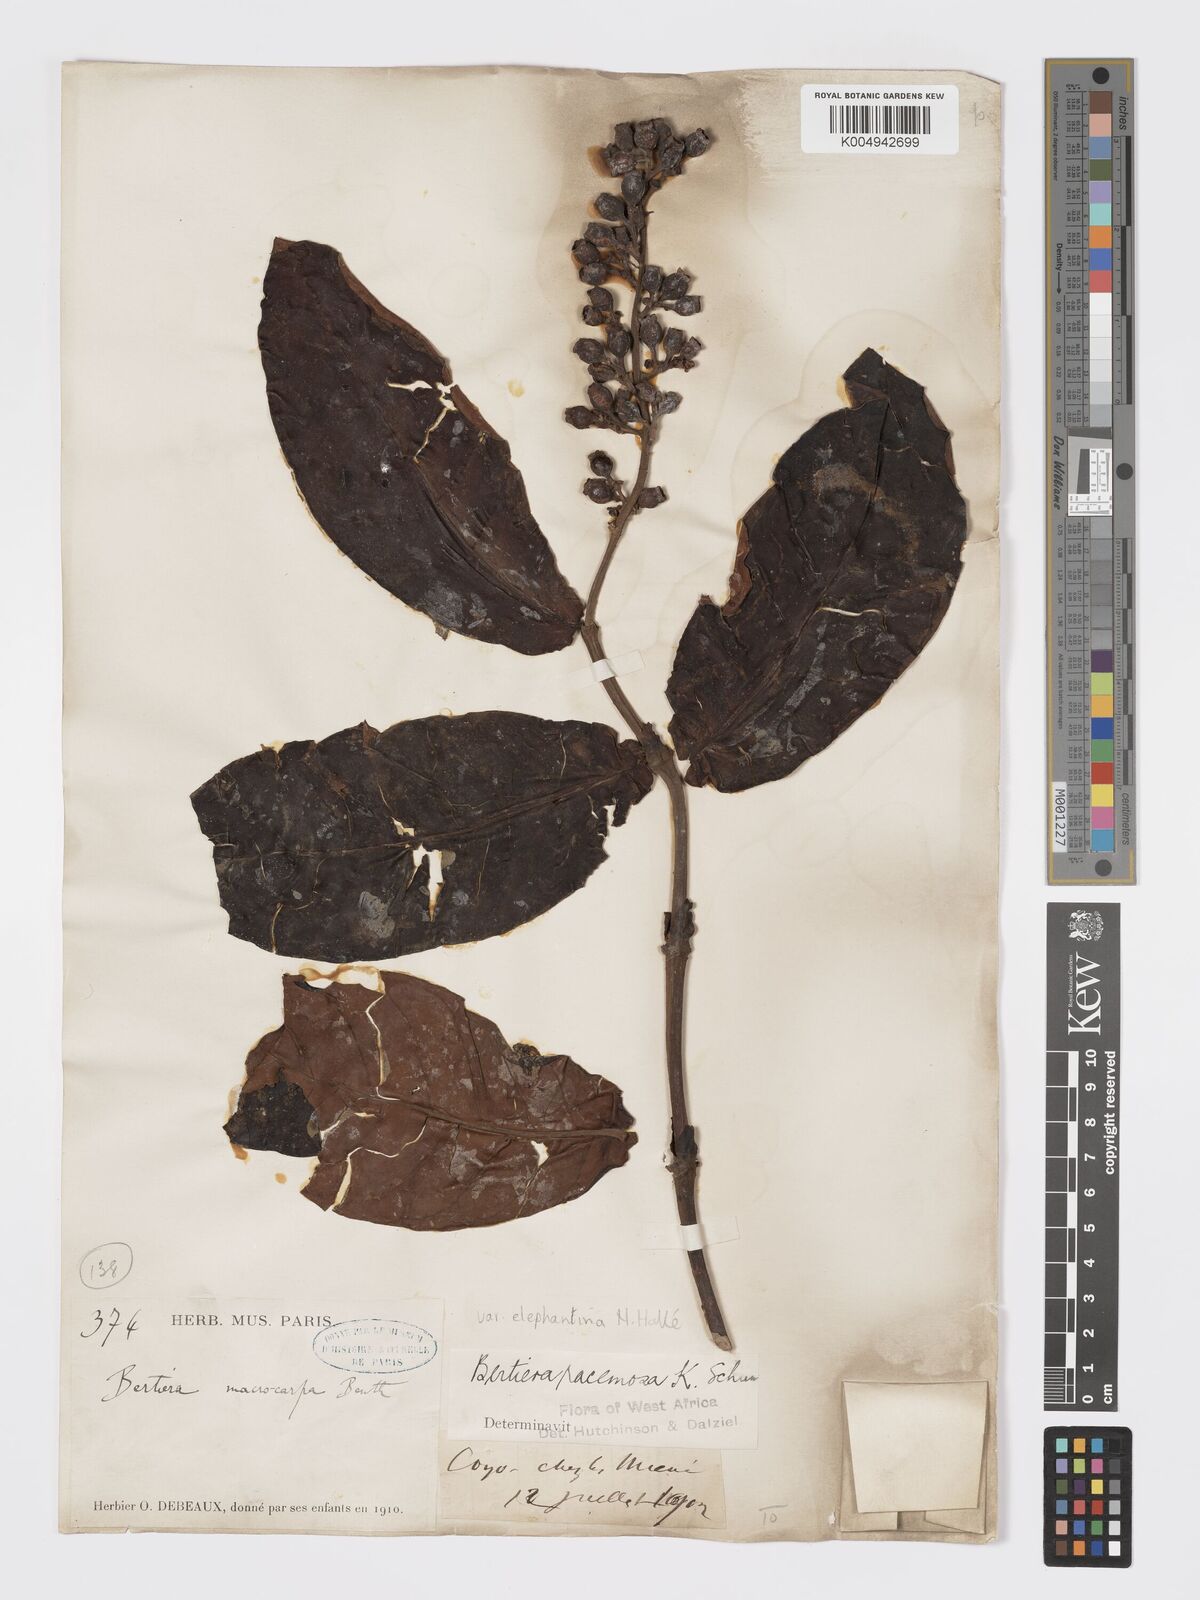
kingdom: Plantae
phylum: Tracheophyta
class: Magnoliopsida
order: Gentianales
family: Rubiaceae
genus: Bertiera
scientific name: Bertiera racemosa
